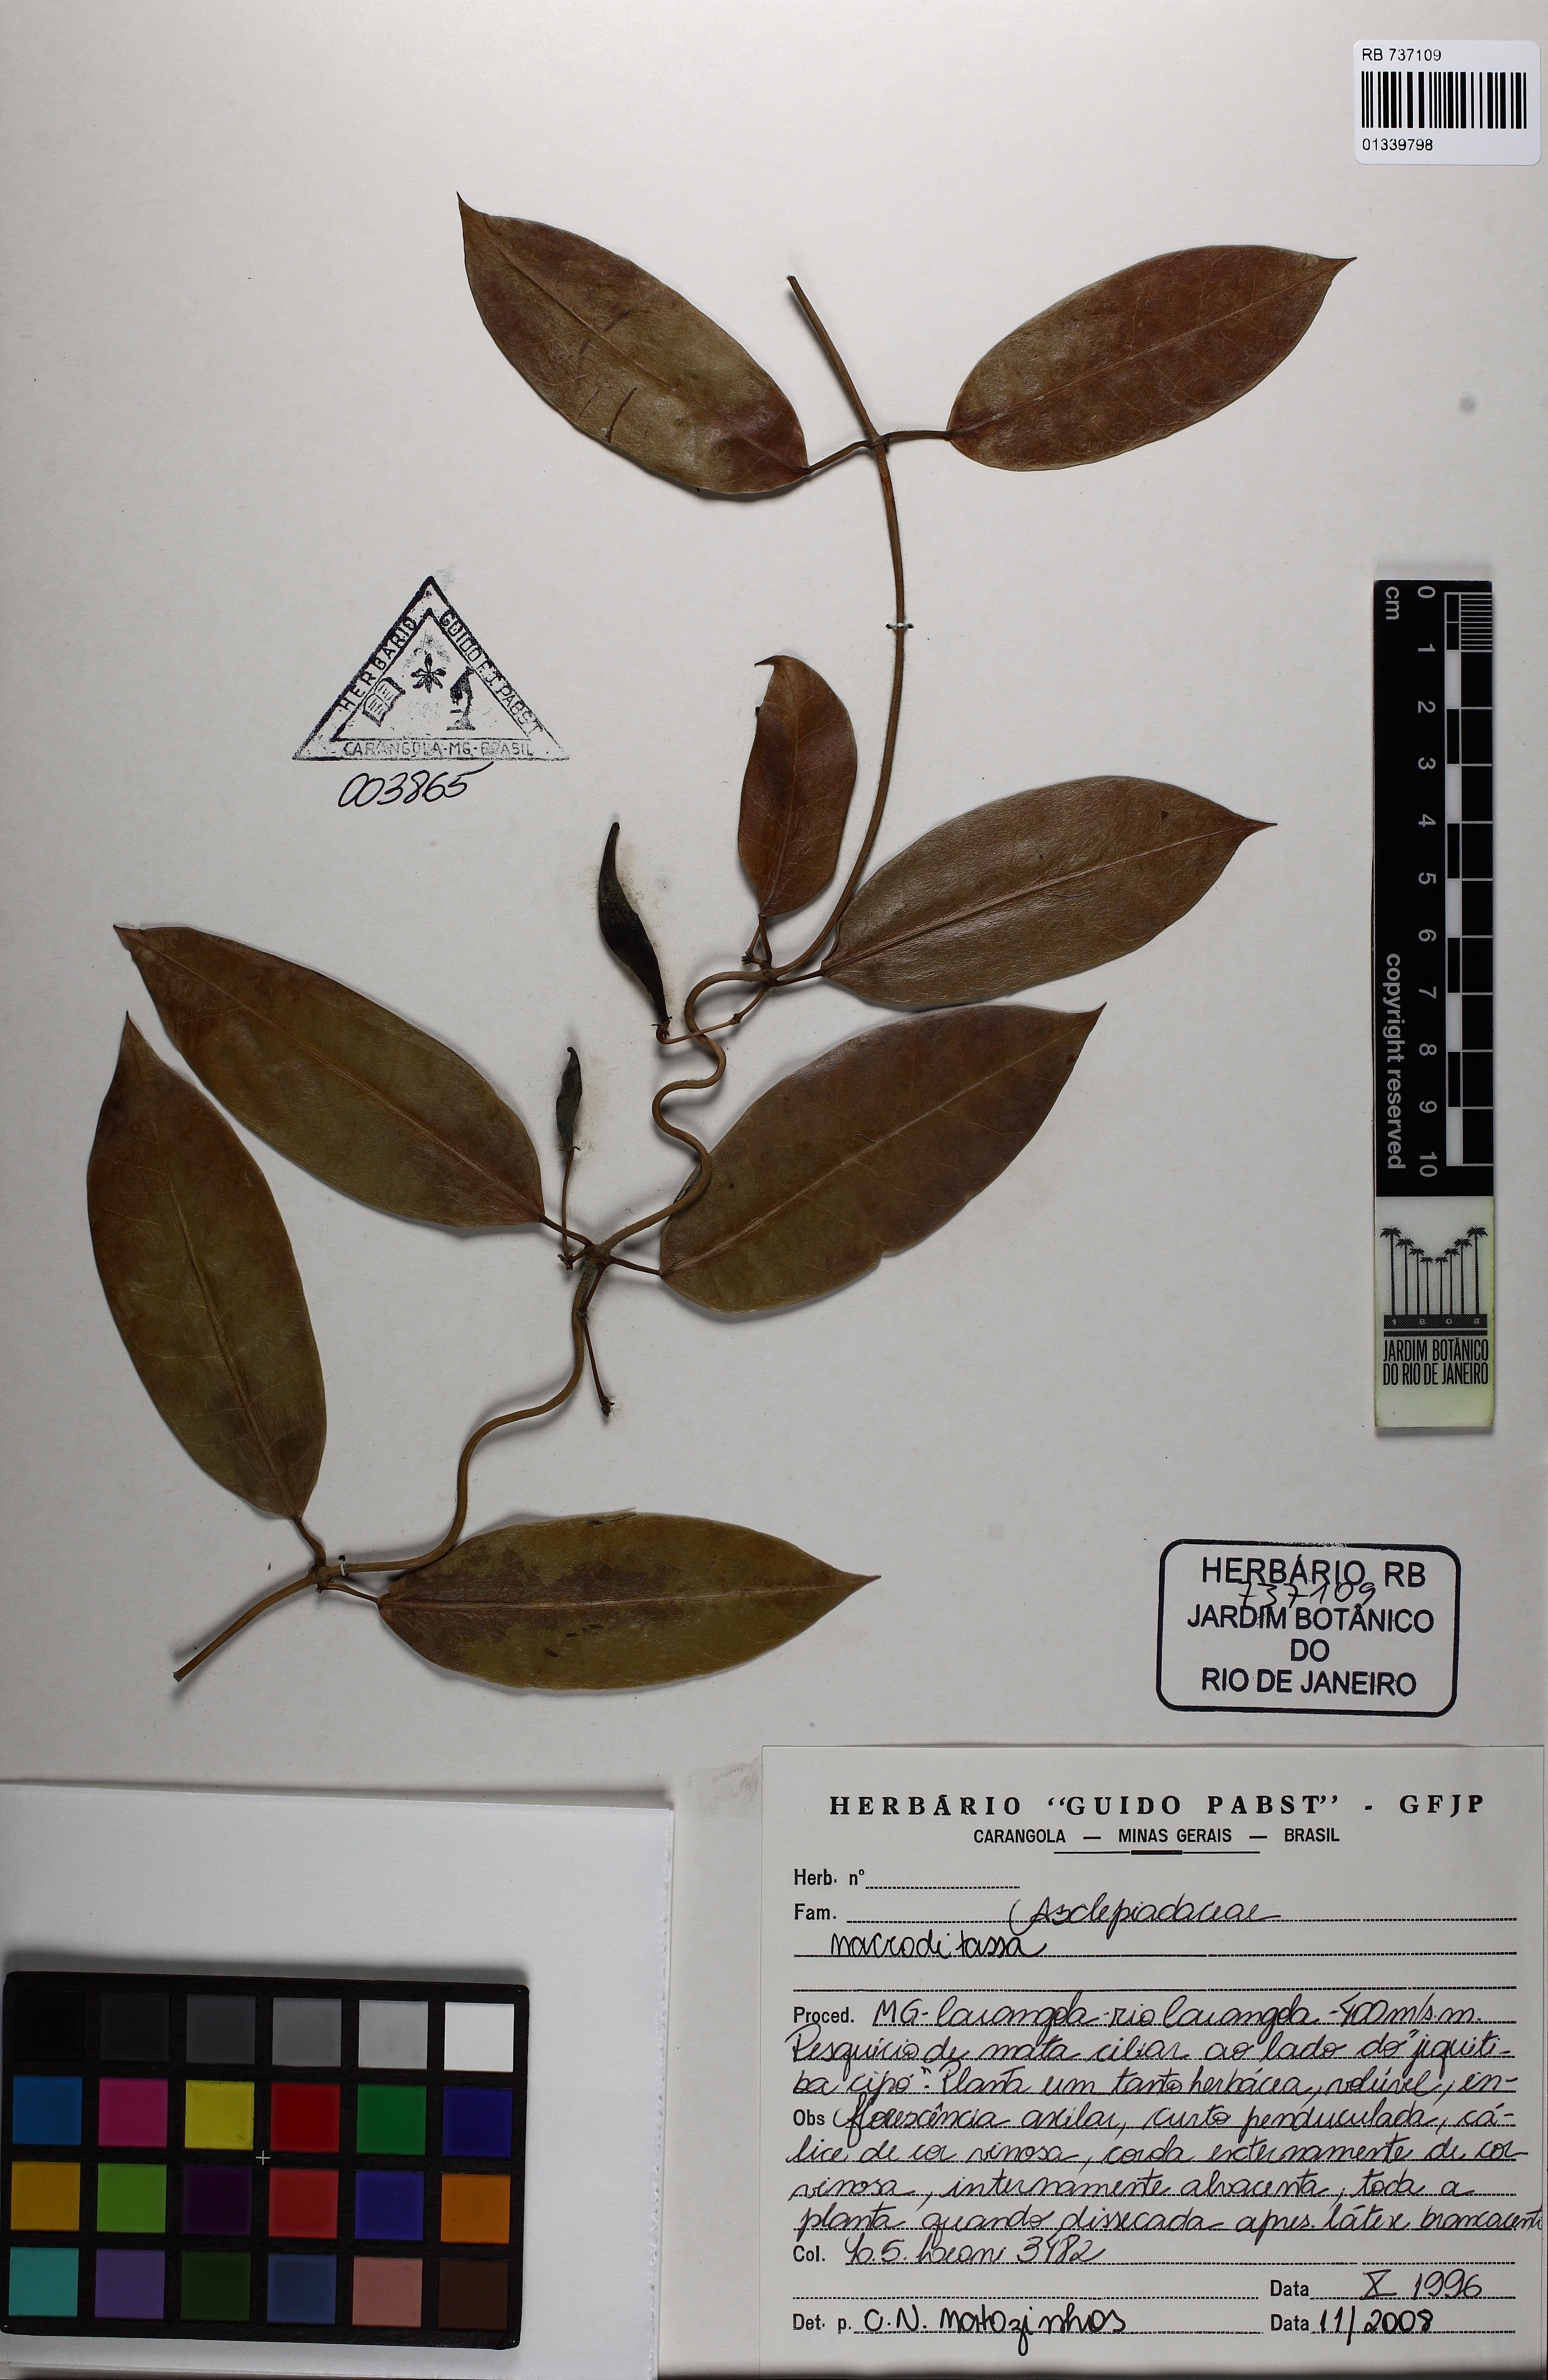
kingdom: Plantae
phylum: Tracheophyta
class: Magnoliopsida
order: Gentianales
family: Apocynaceae
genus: Macroditassa
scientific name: Macroditassa
